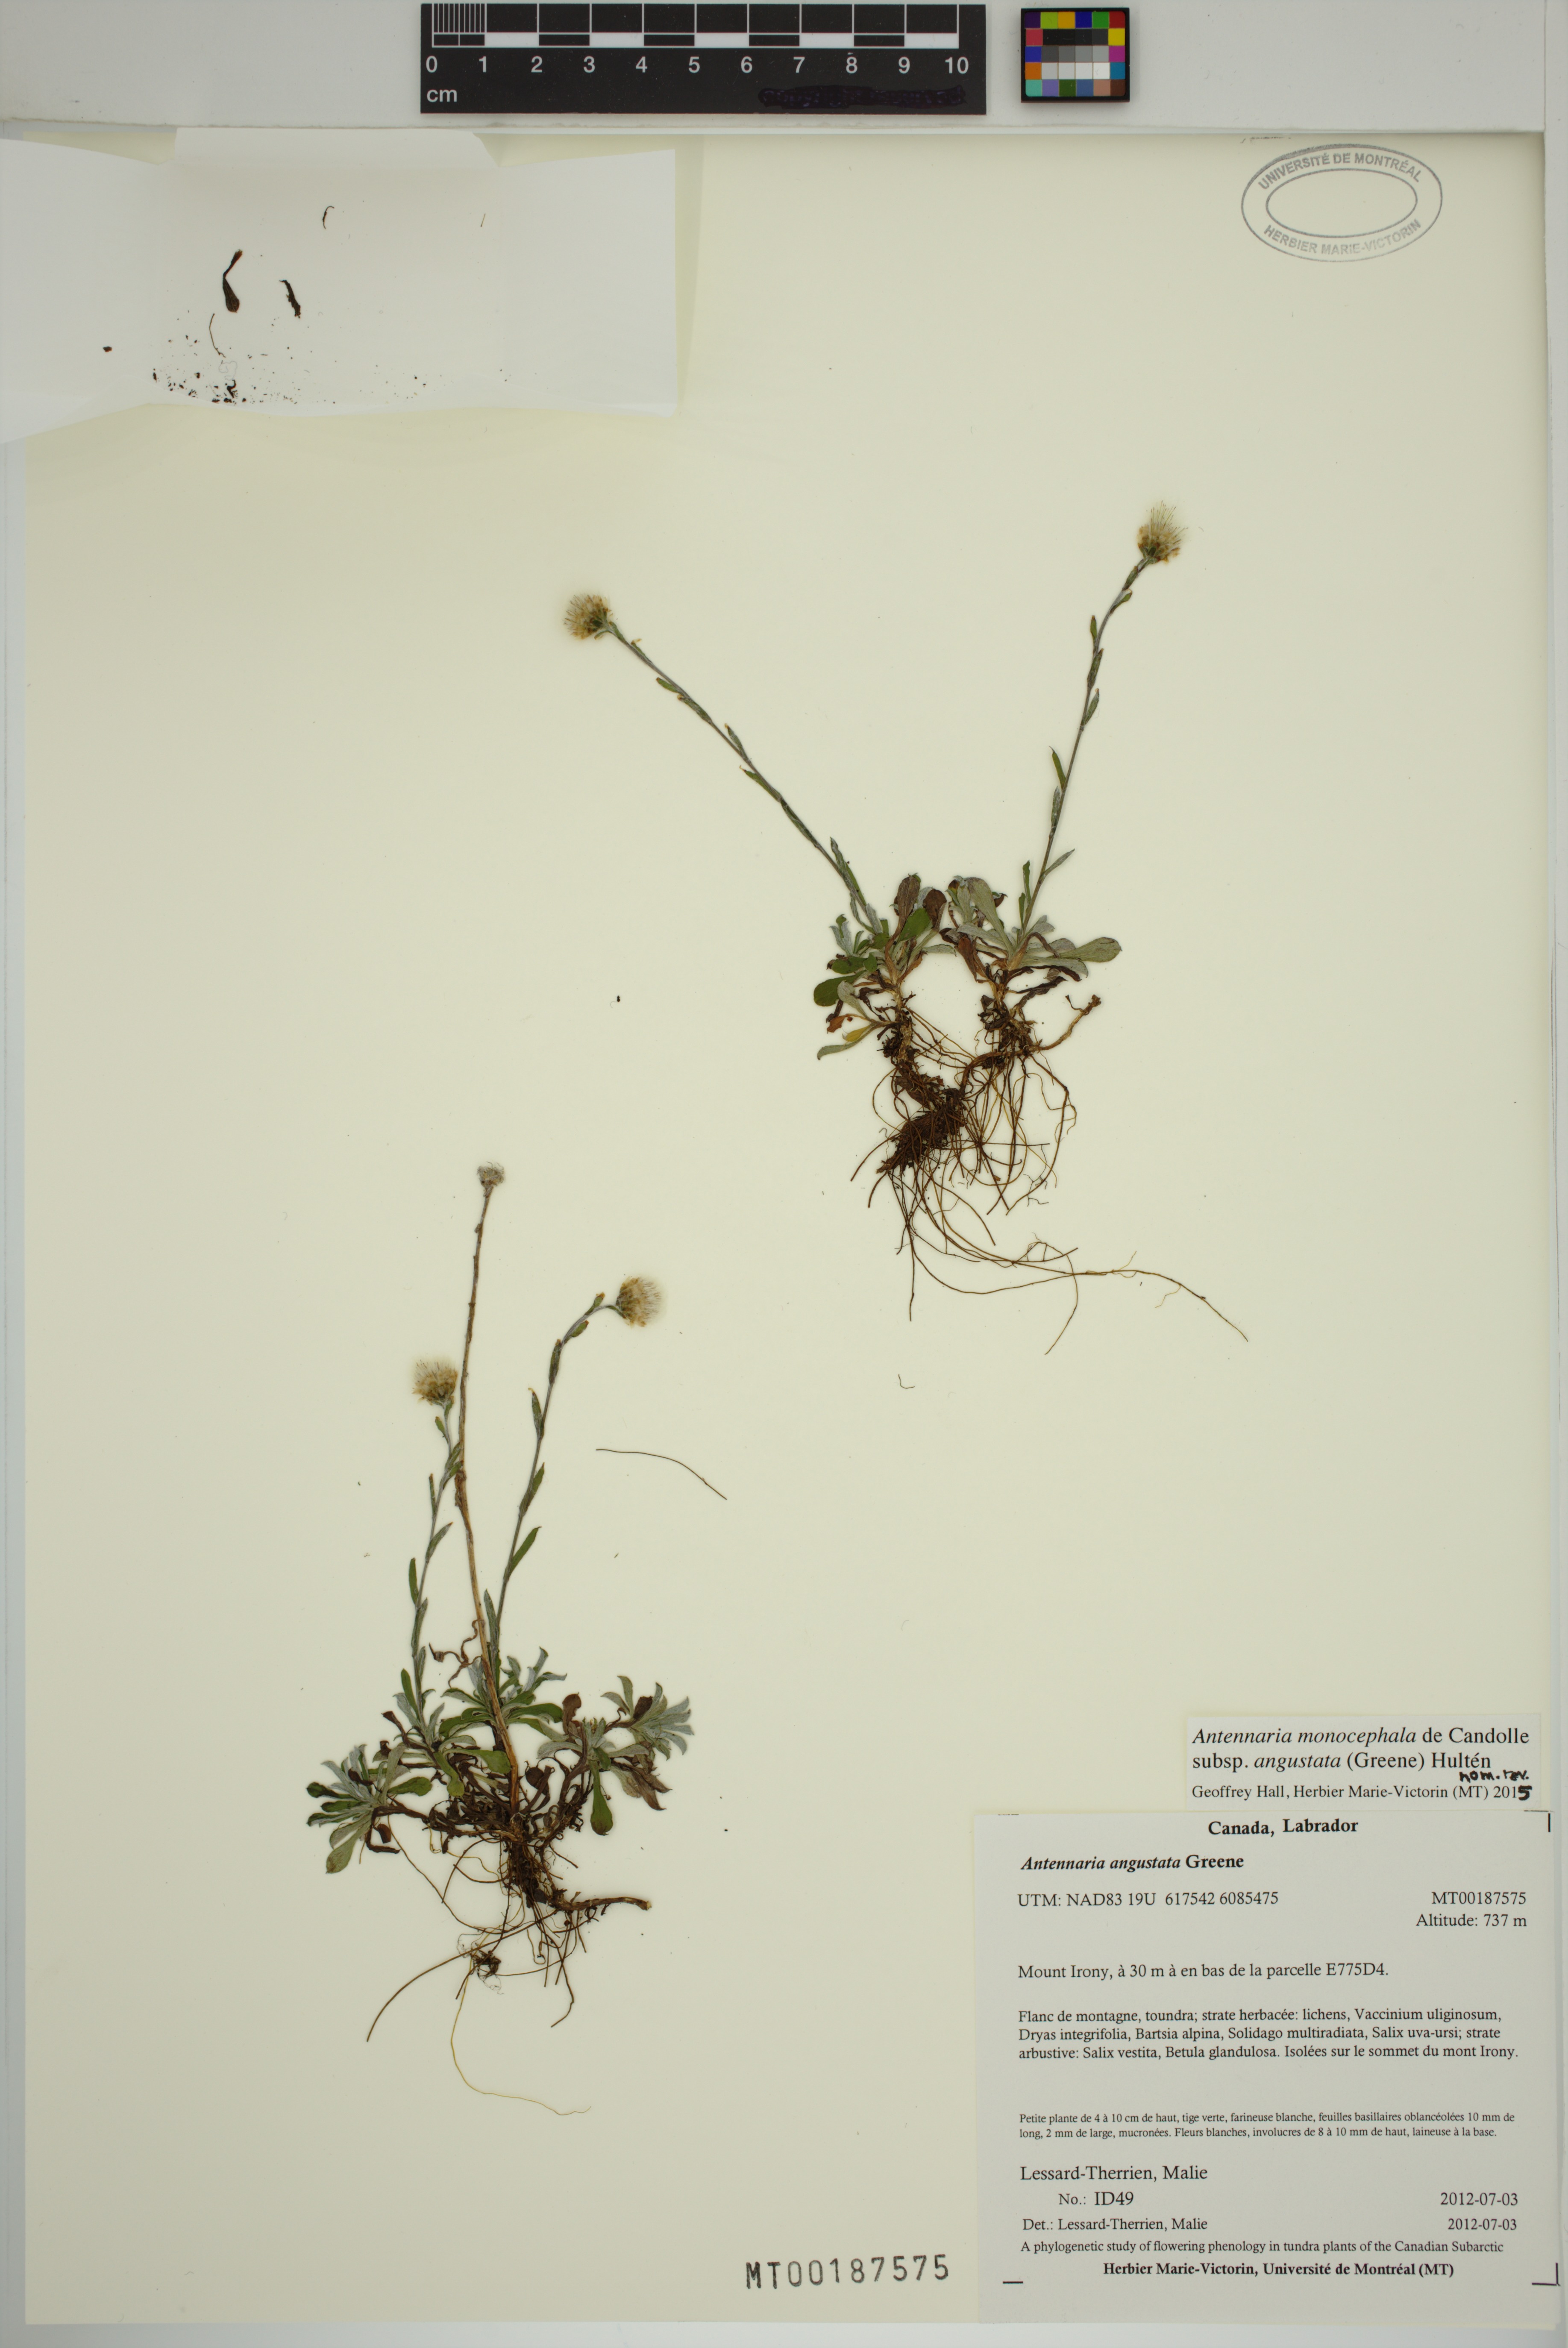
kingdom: Plantae
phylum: Tracheophyta
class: Magnoliopsida
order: Asterales
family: Asteraceae
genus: Antennaria
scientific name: Antennaria howellii
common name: Howell's pussytoes
